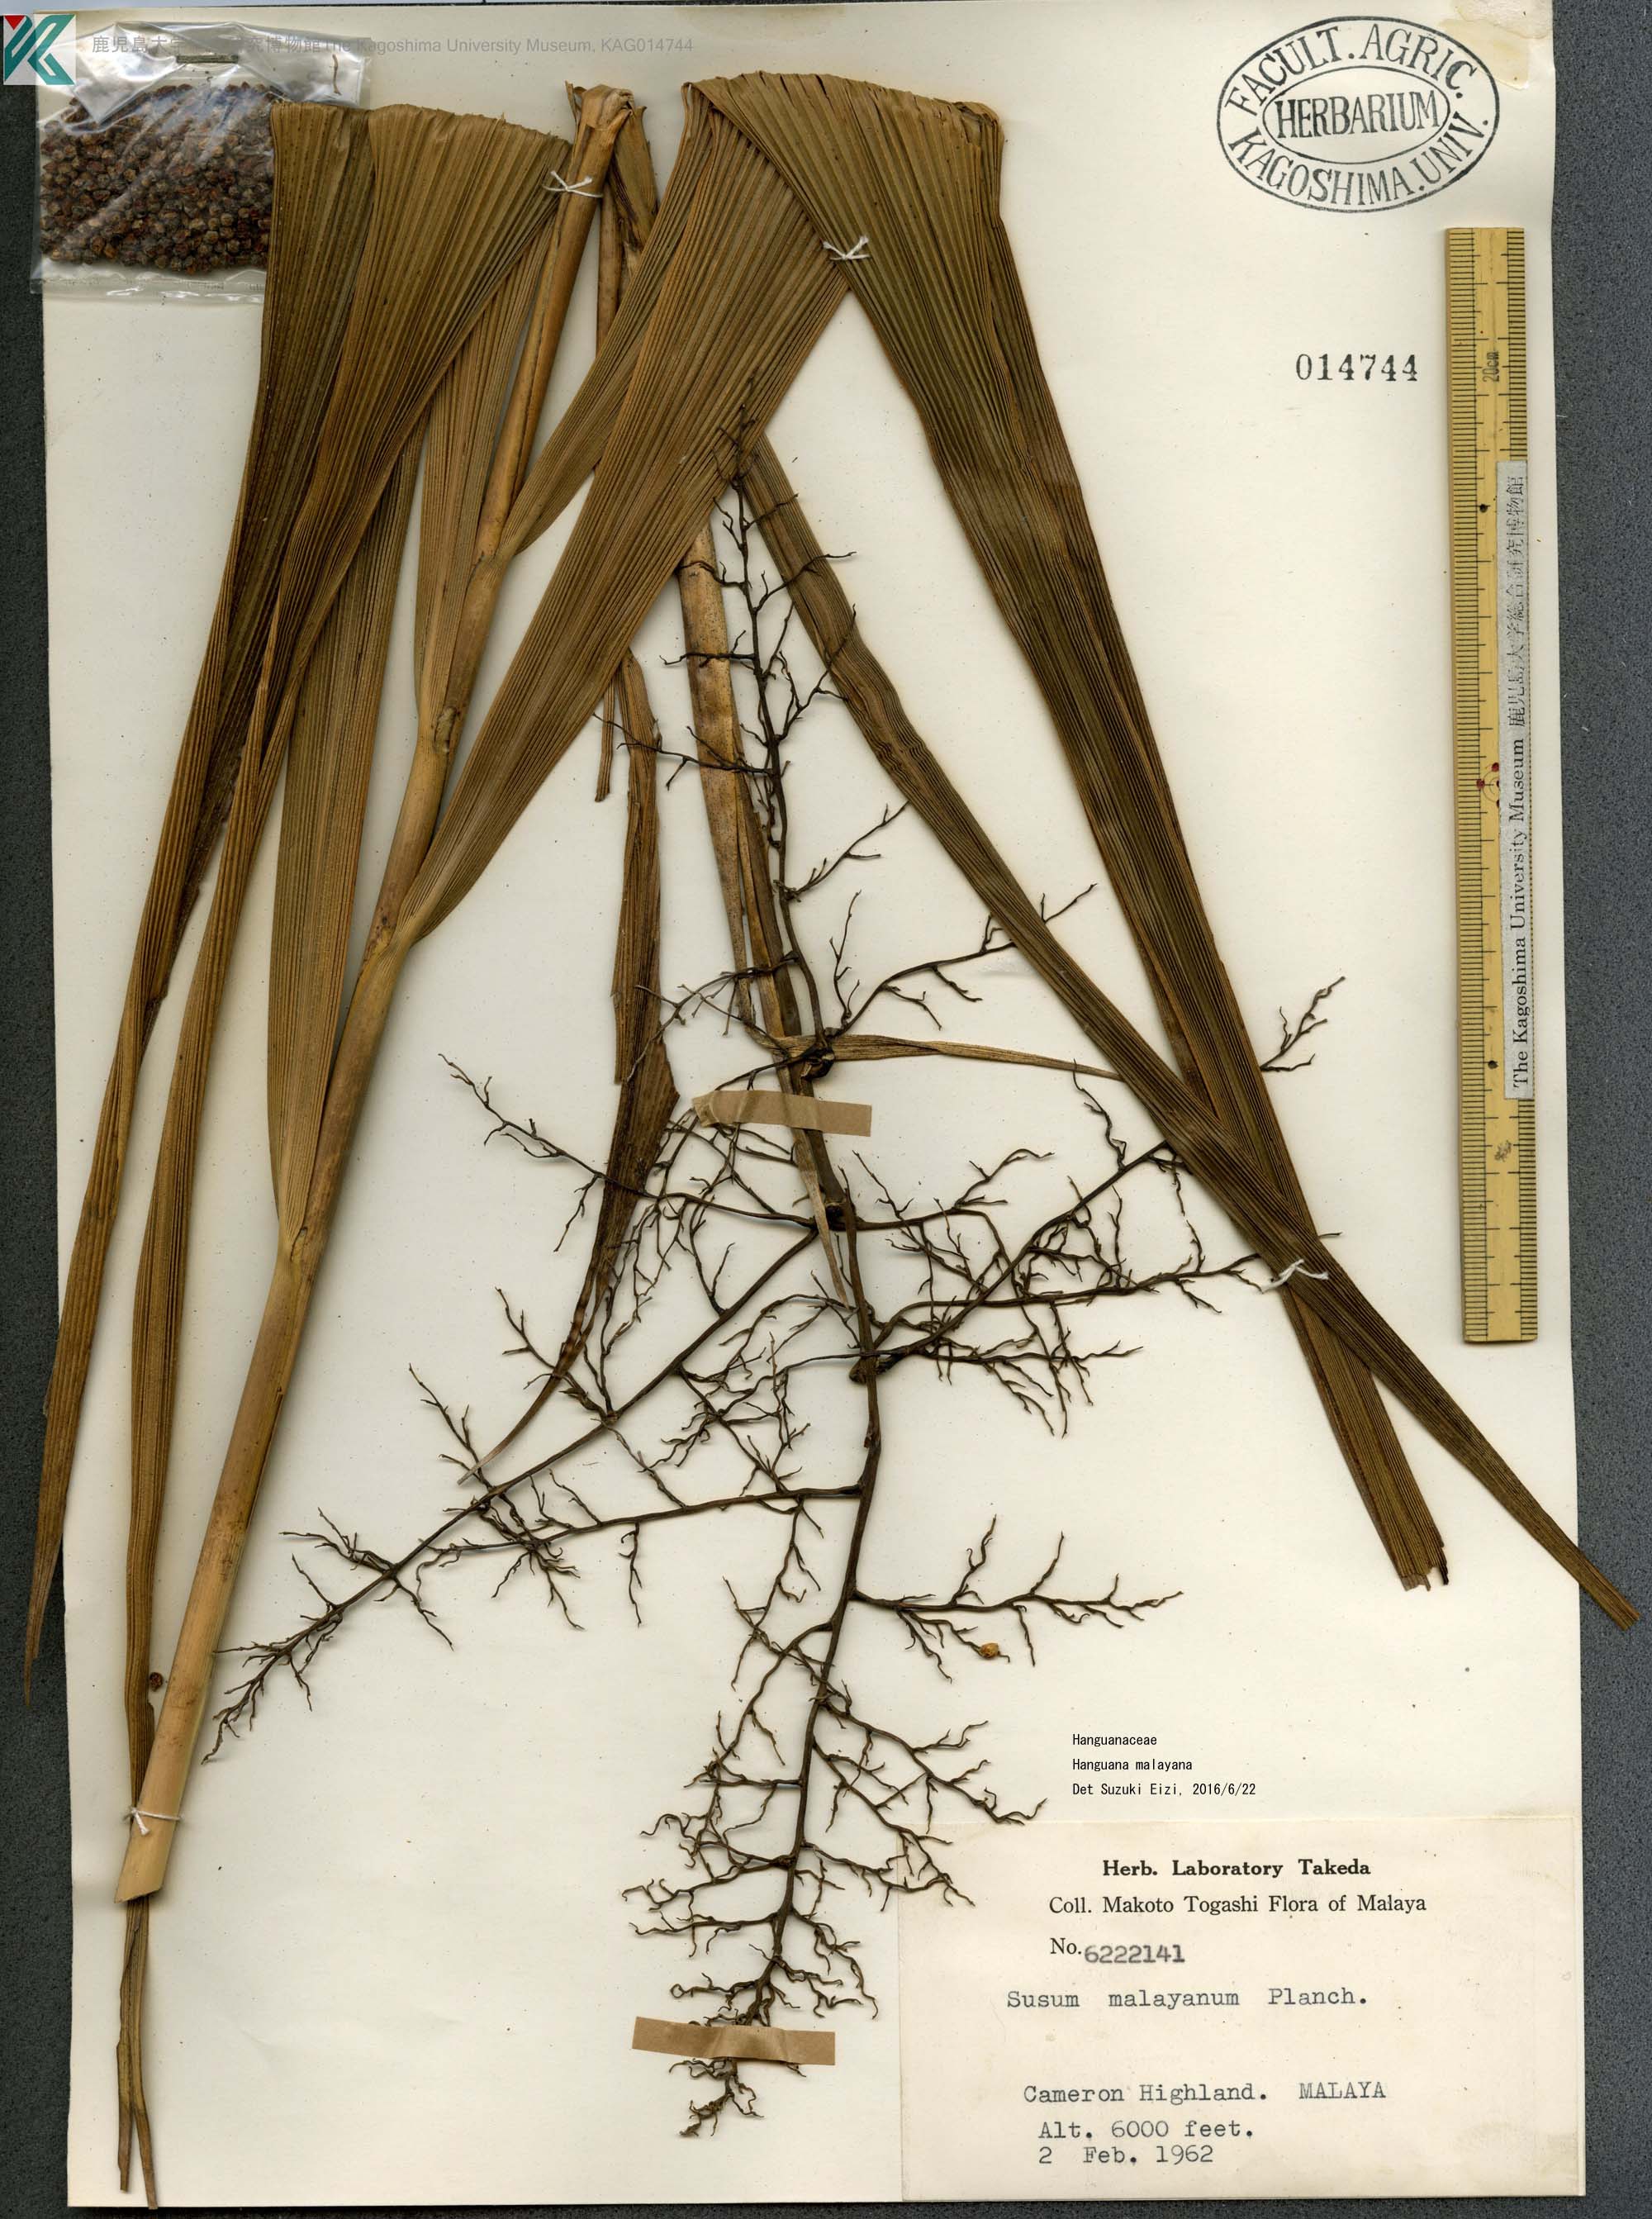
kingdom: Plantae
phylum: Tracheophyta
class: Liliopsida
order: Commelinales
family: Hanguanaceae
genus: Hanguana
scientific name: Hanguana malayana
